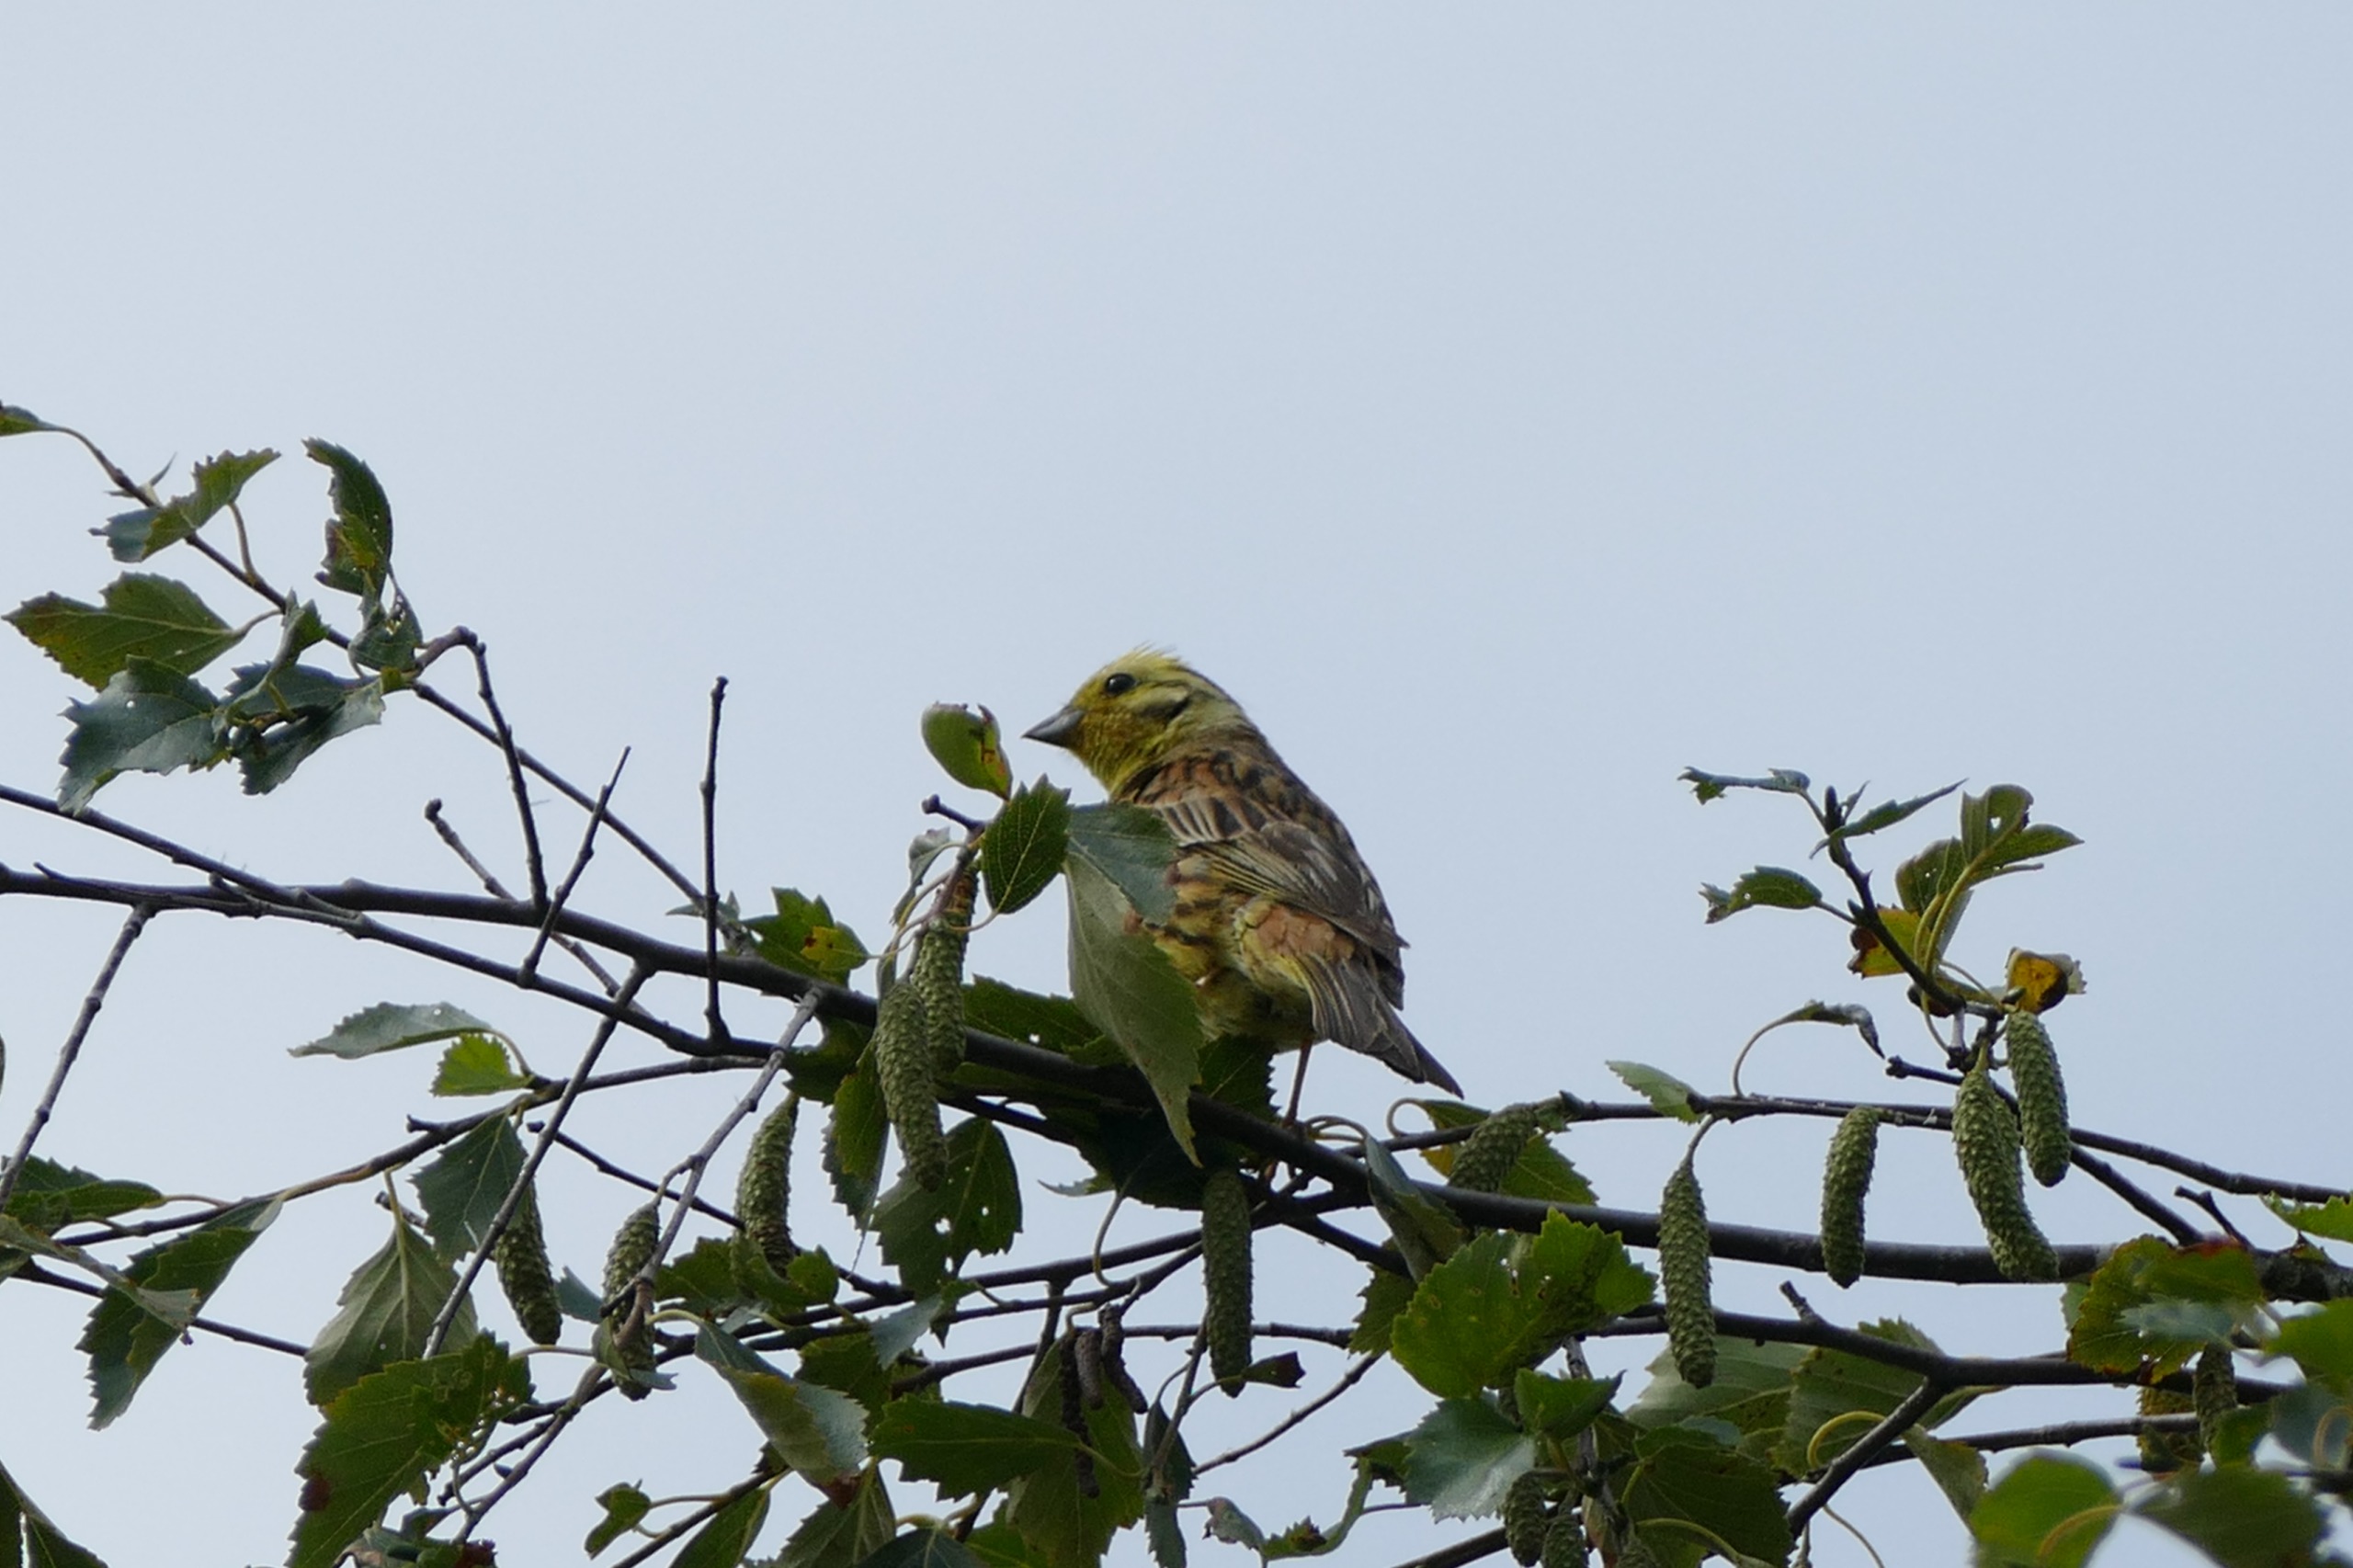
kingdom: Animalia
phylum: Chordata
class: Aves
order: Passeriformes
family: Emberizidae
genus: Emberiza
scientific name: Emberiza citrinella
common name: Gulspurv
